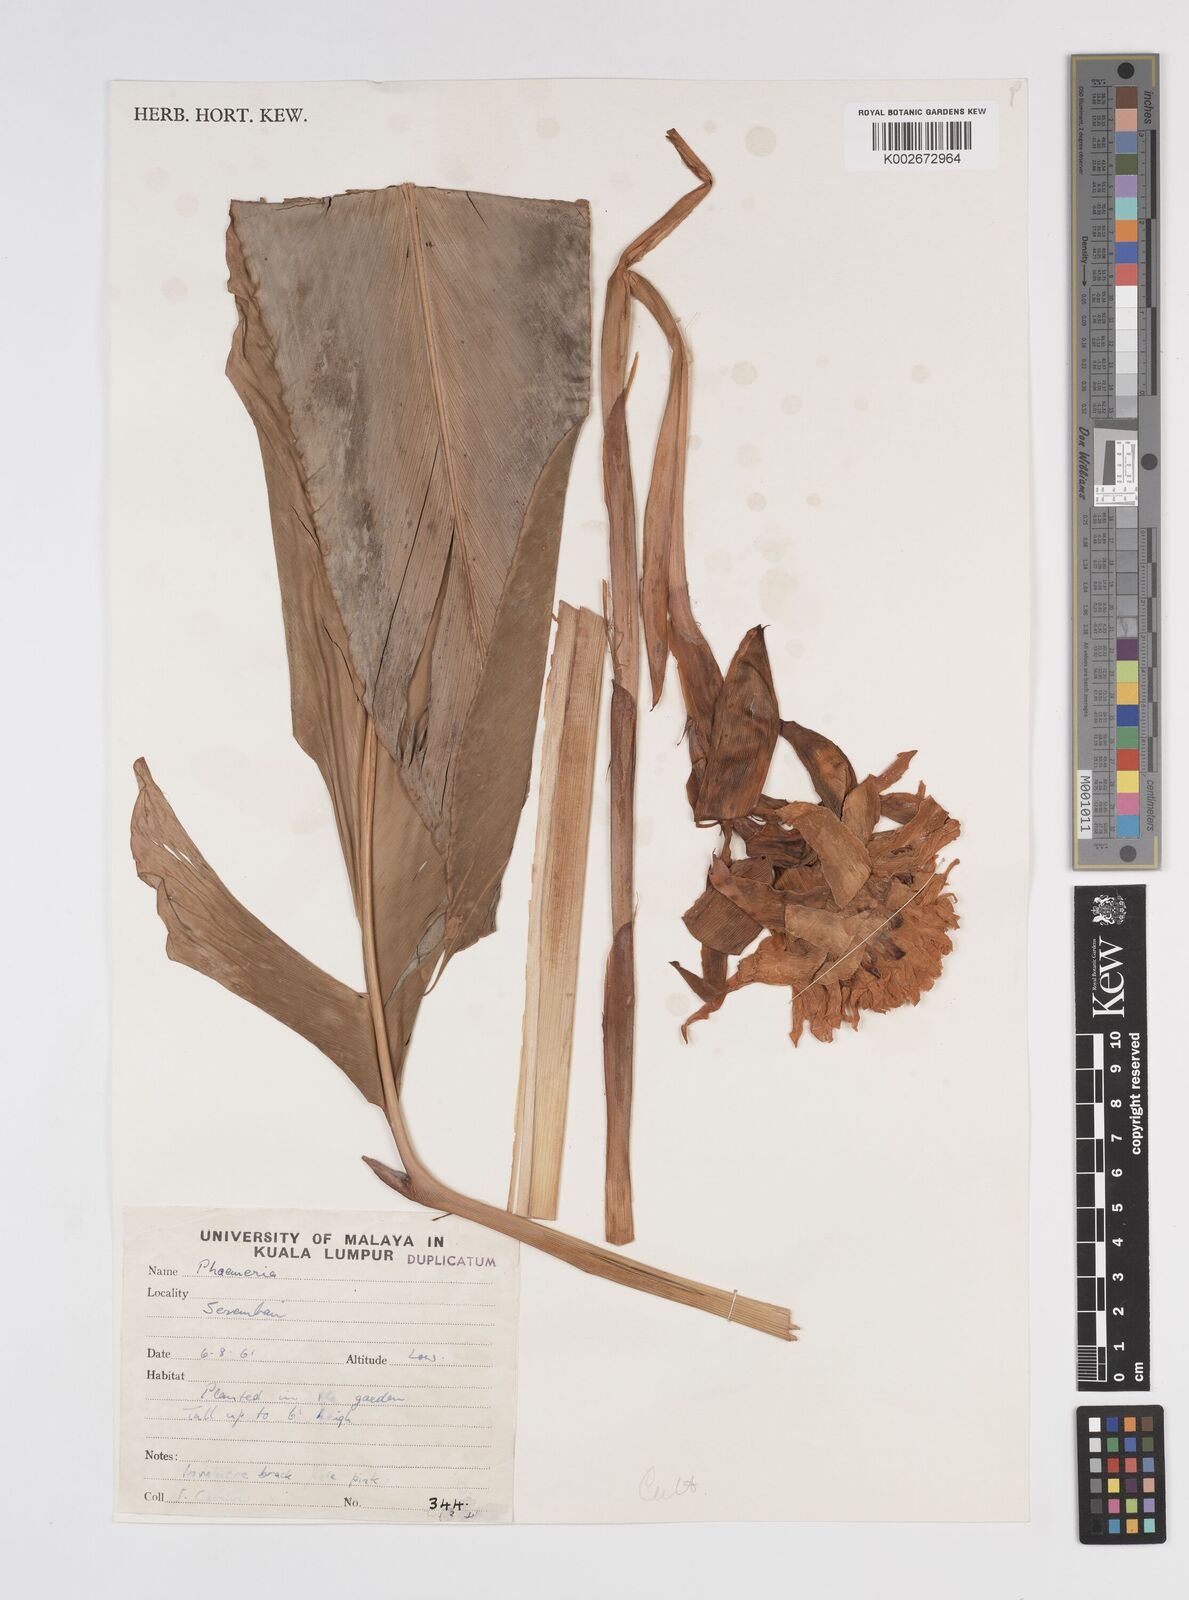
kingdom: Plantae
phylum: Tracheophyta
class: Liliopsida
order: Zingiberales
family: Zingiberaceae
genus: Etlingera
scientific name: Etlingera
